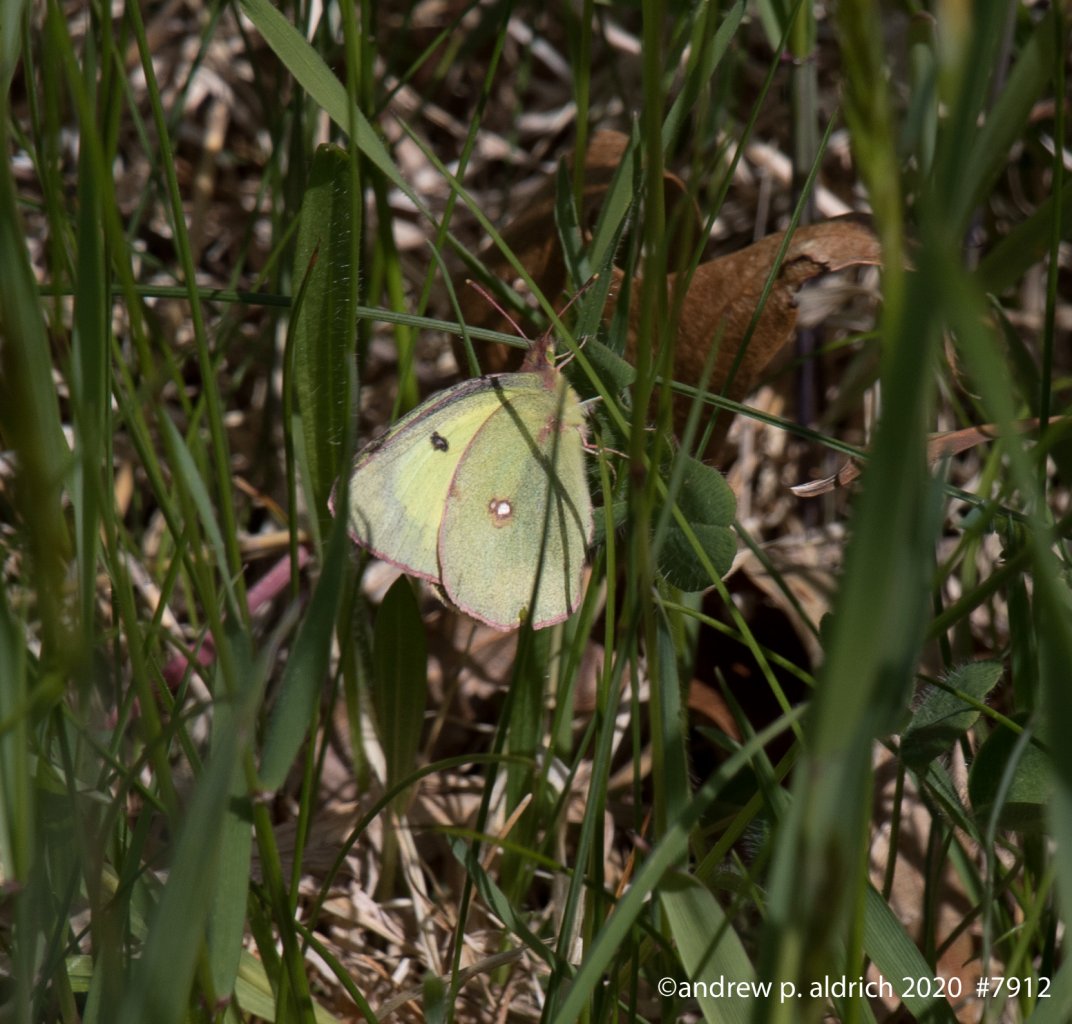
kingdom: Animalia
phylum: Arthropoda
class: Insecta
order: Lepidoptera
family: Pieridae
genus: Colias
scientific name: Colias
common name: Clouded Yellows
